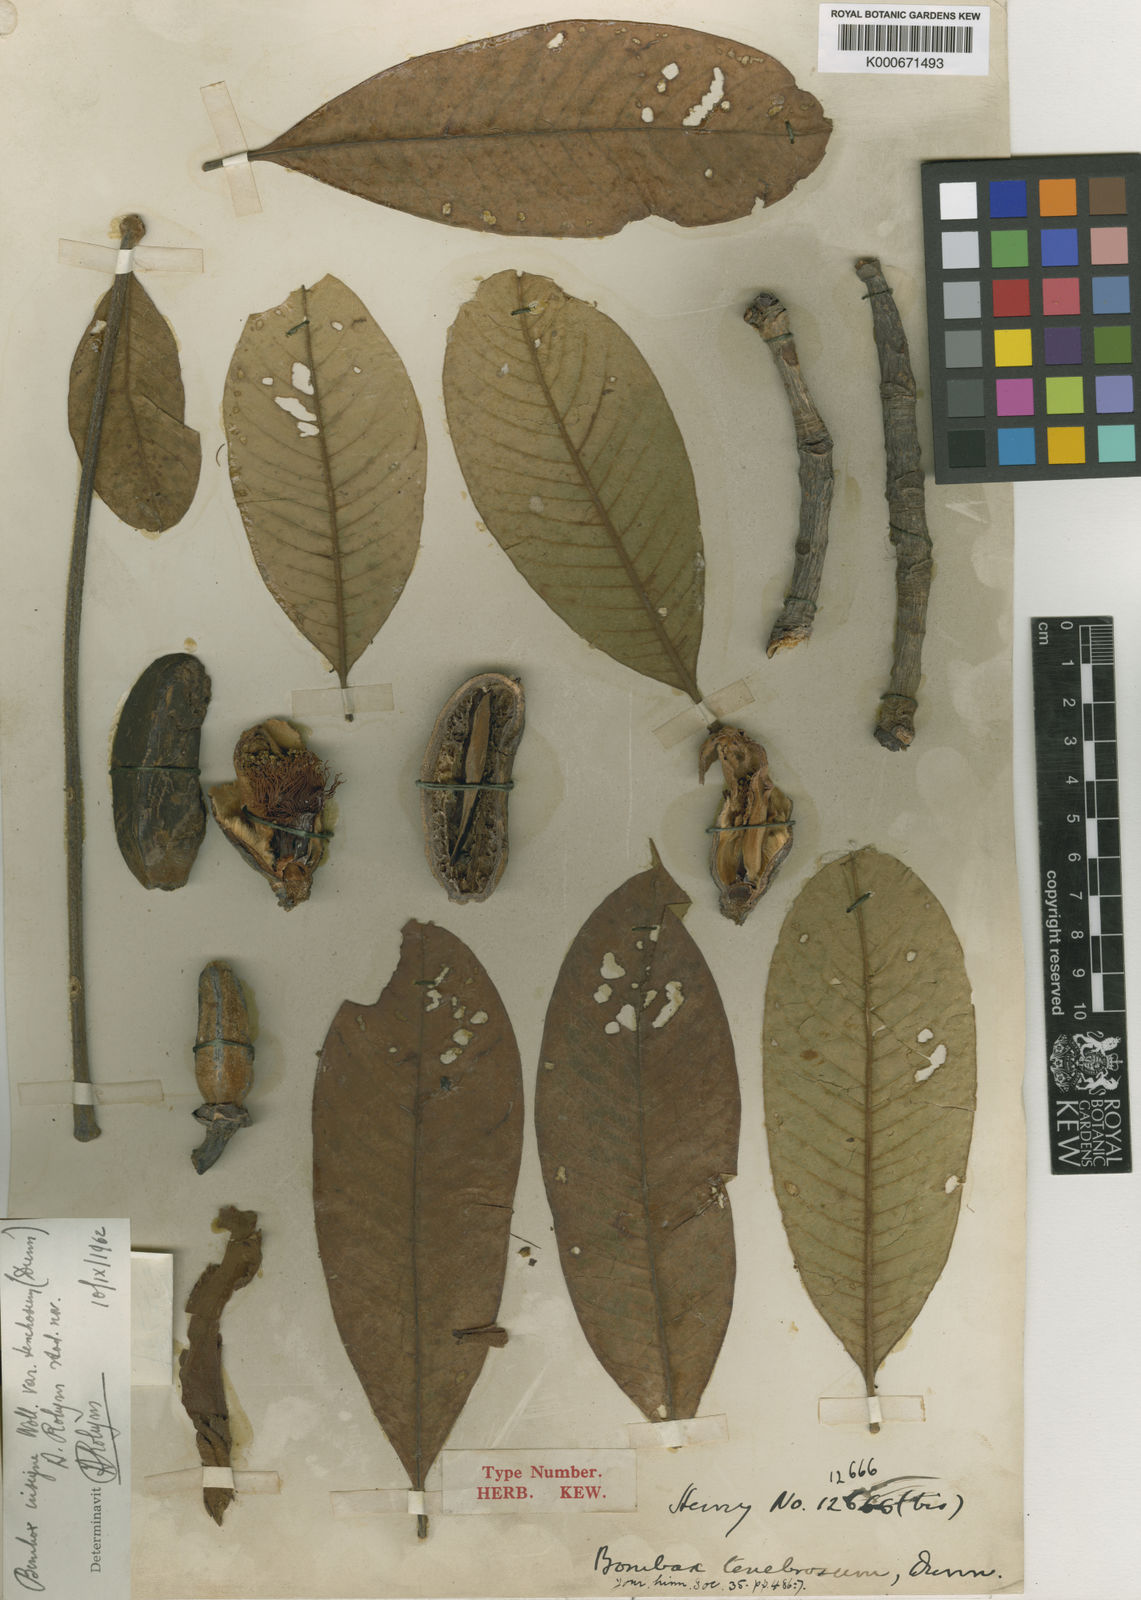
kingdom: Plantae
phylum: Tracheophyta
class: Magnoliopsida
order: Malvales
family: Malvaceae
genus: Bombax
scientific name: Bombax insigne
